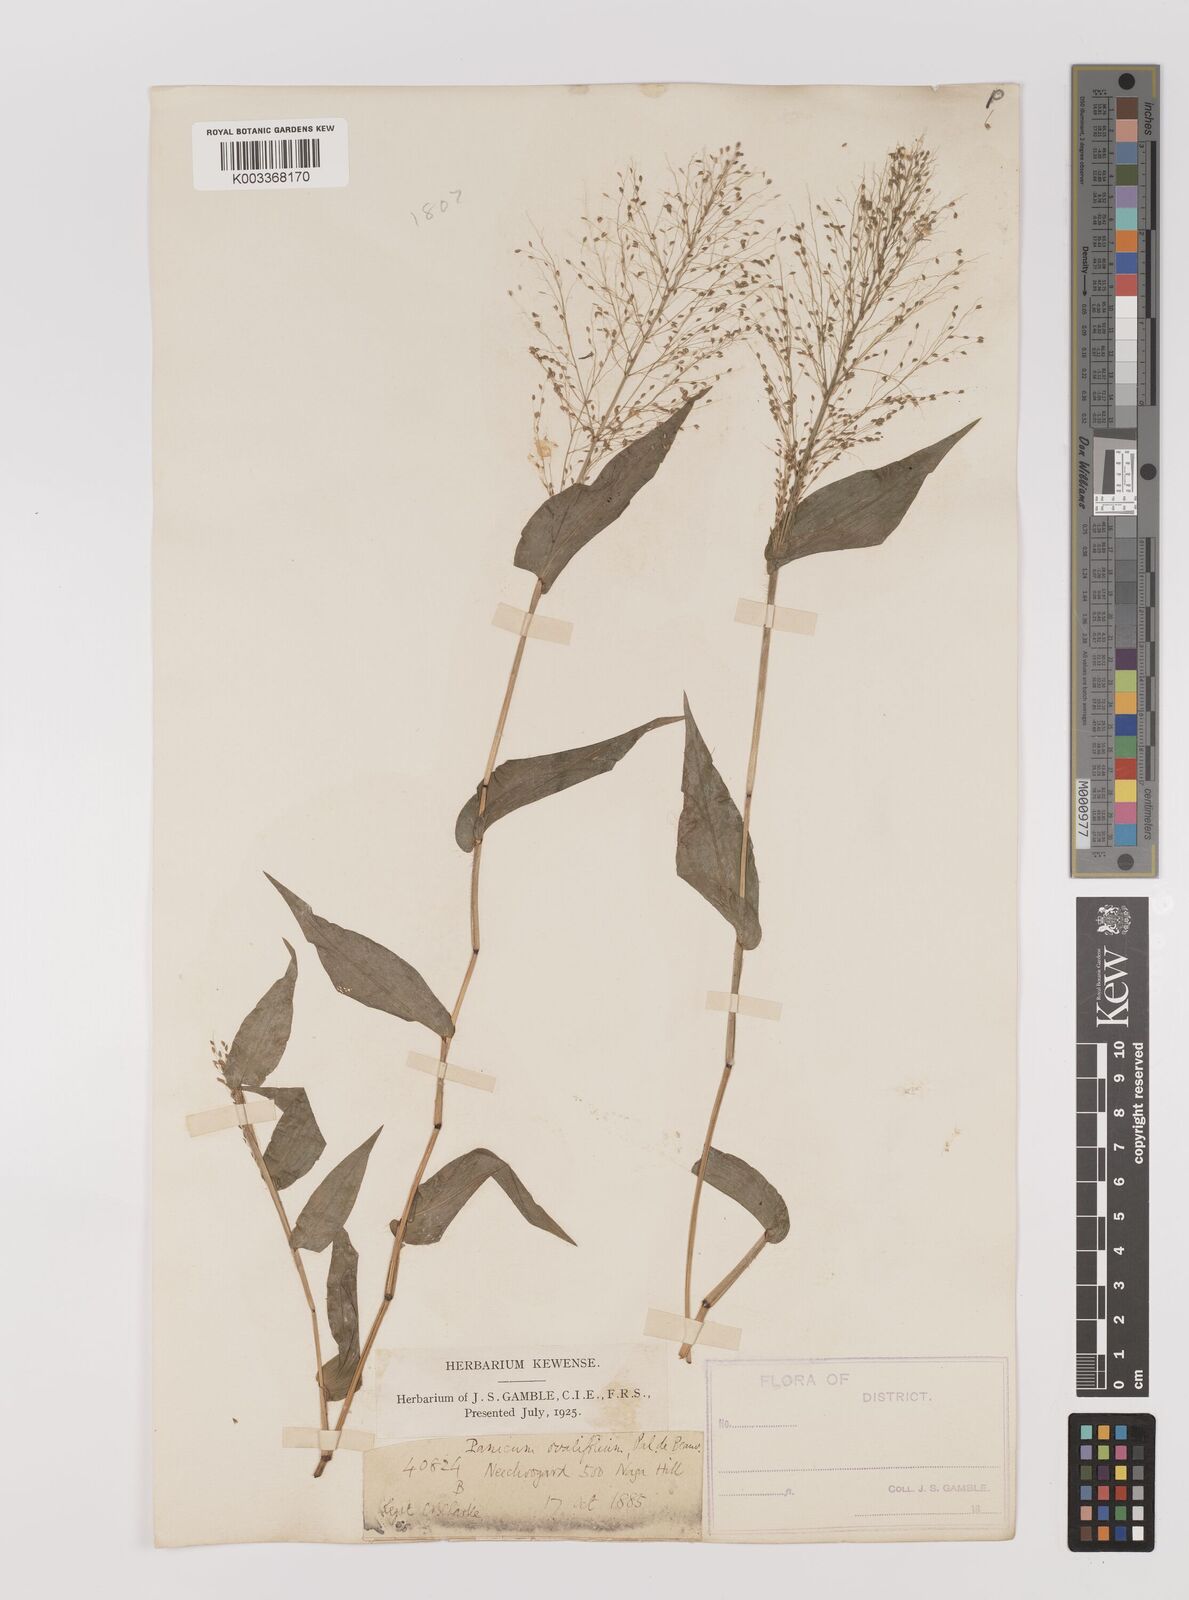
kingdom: Plantae
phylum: Tracheophyta
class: Liliopsida
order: Poales
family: Poaceae
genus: Panicum
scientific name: Panicum brevifolium
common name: Shortleaf panic grass
